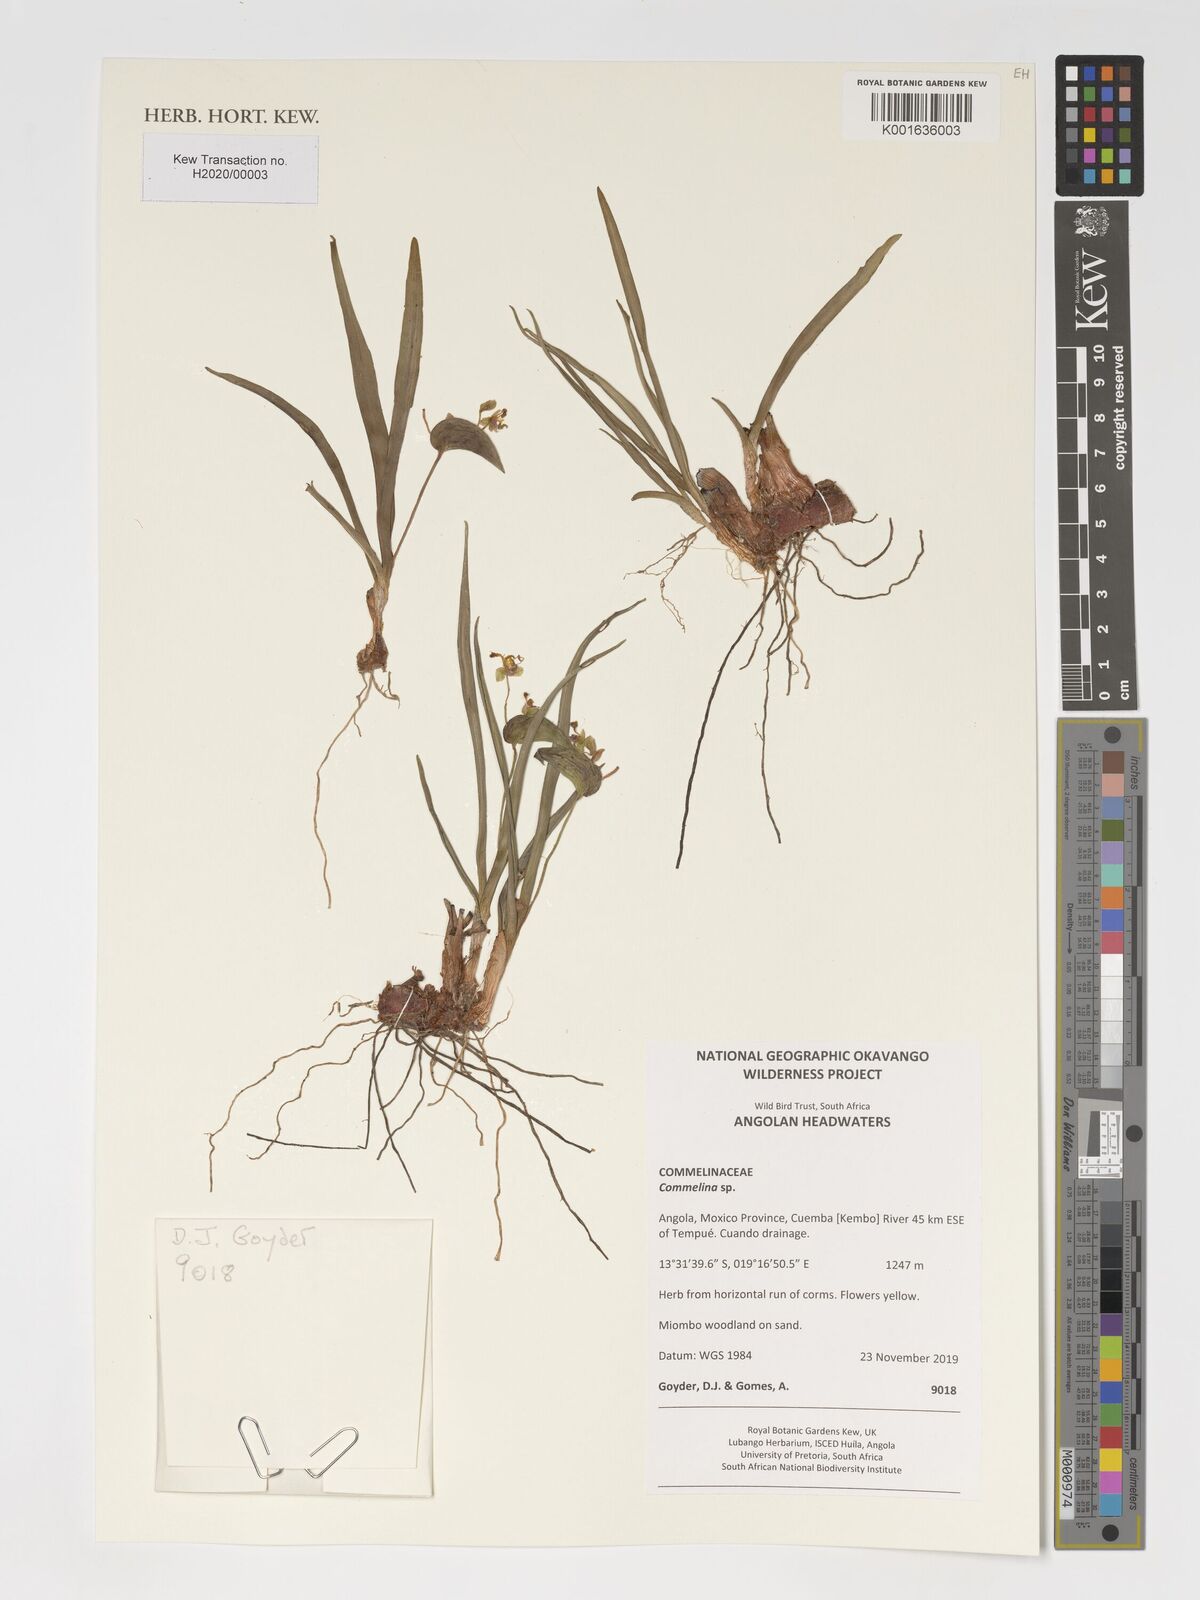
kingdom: Plantae
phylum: Tracheophyta
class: Liliopsida
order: Commelinales
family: Commelinaceae
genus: Commelina
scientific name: Commelina
